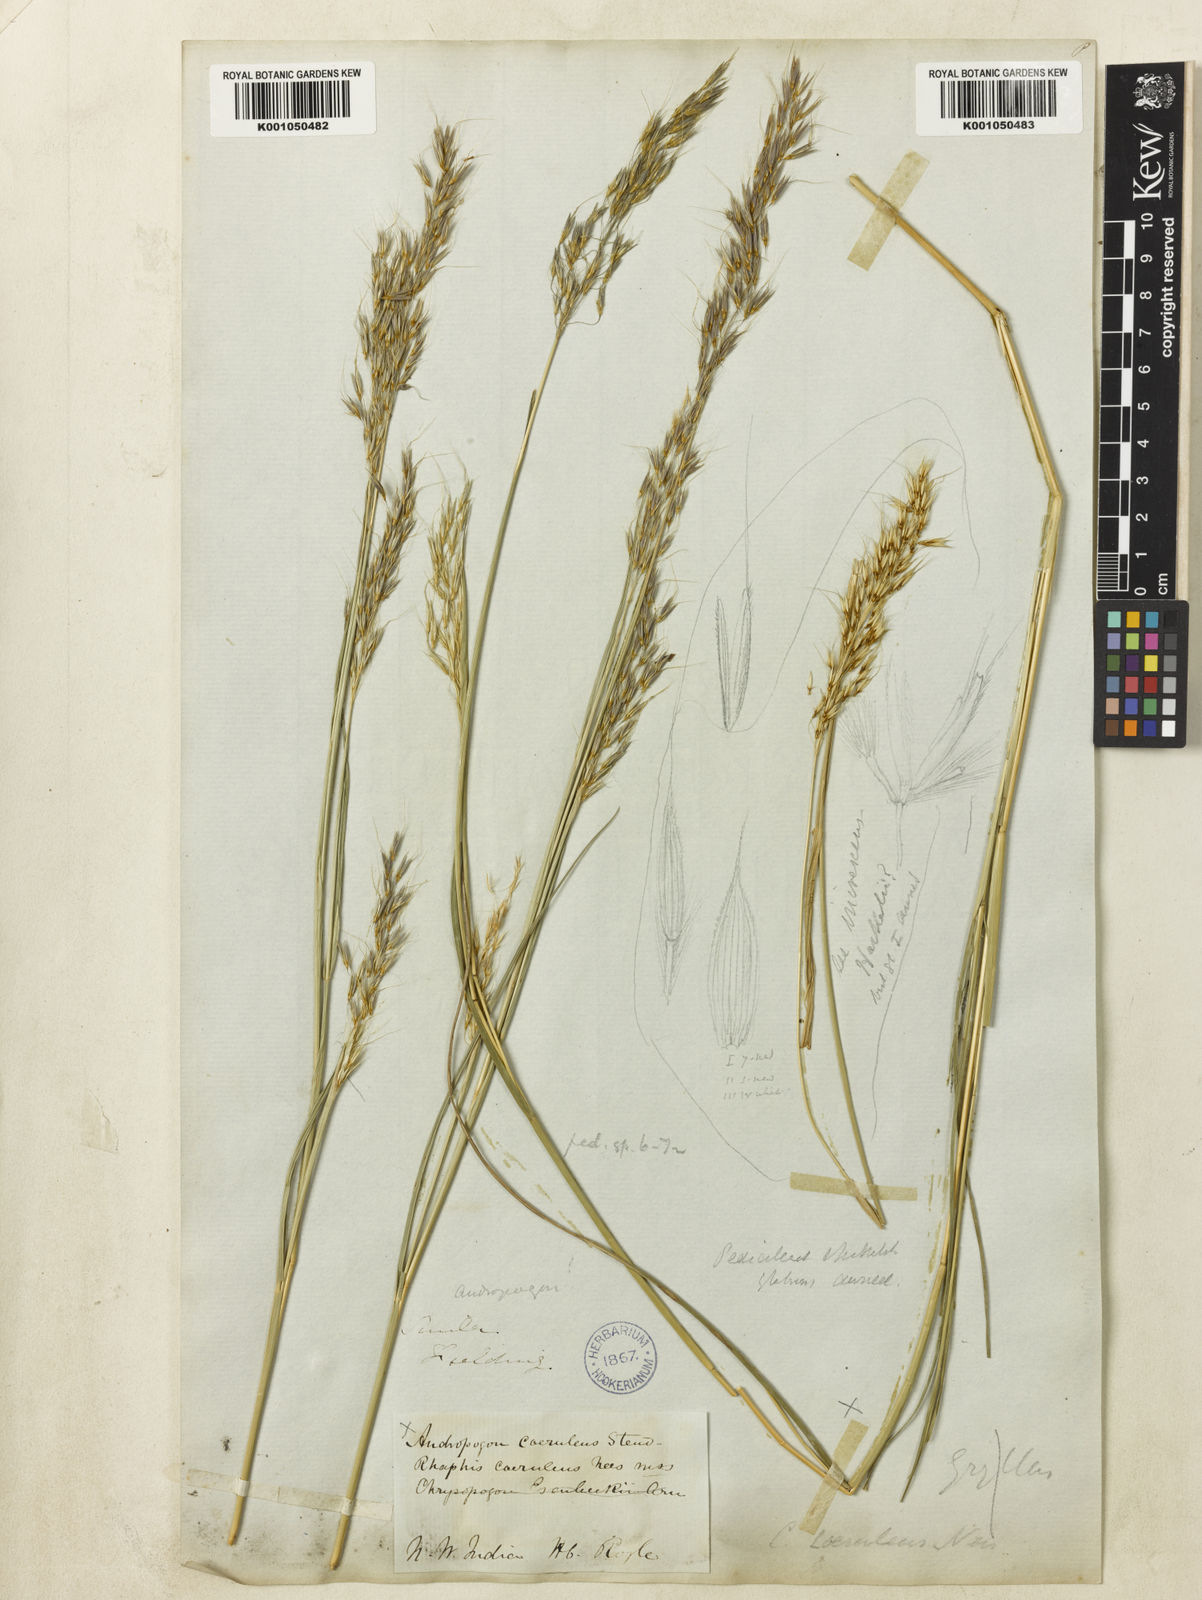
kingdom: Plantae
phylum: Tracheophyta
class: Liliopsida
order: Poales
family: Poaceae
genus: Chrysopogon
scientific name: Chrysopogon serrulatus
